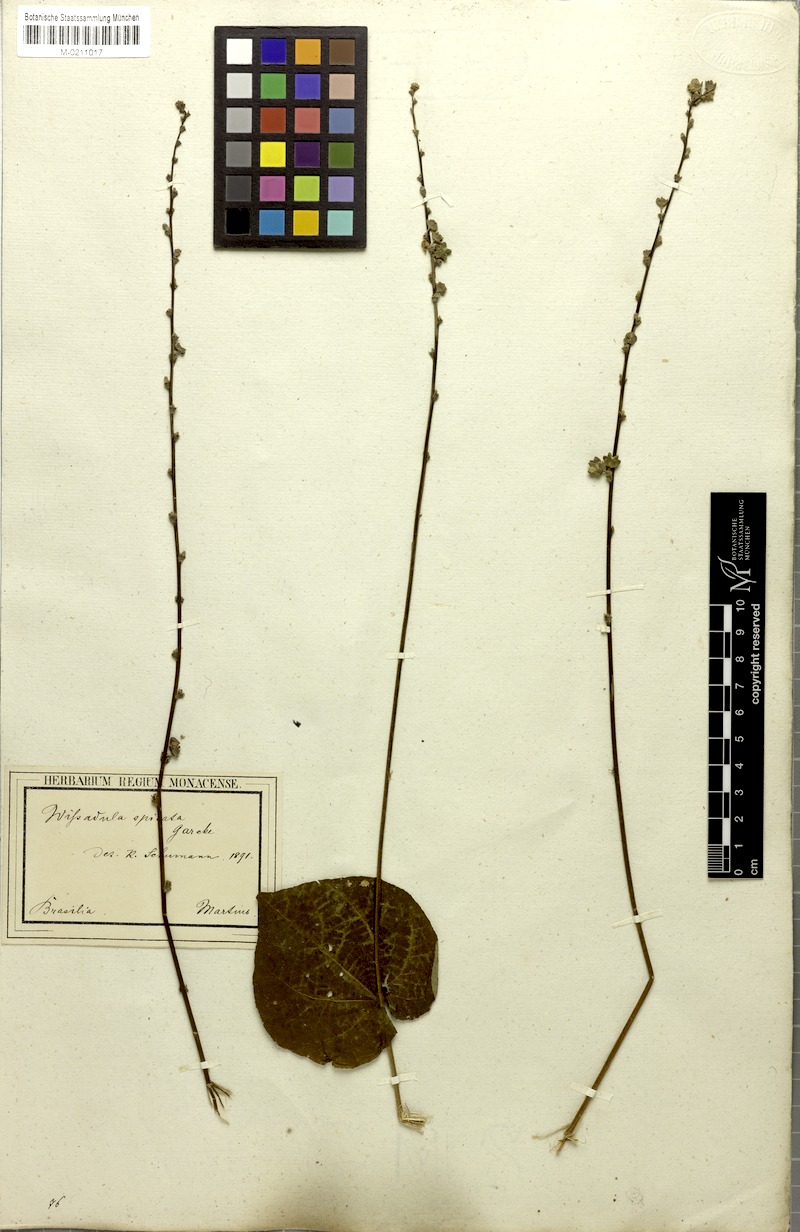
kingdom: Plantae
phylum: Tracheophyta
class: Magnoliopsida
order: Malvales
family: Malvaceae
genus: Allobriquetia
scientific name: Allobriquetia spicata
